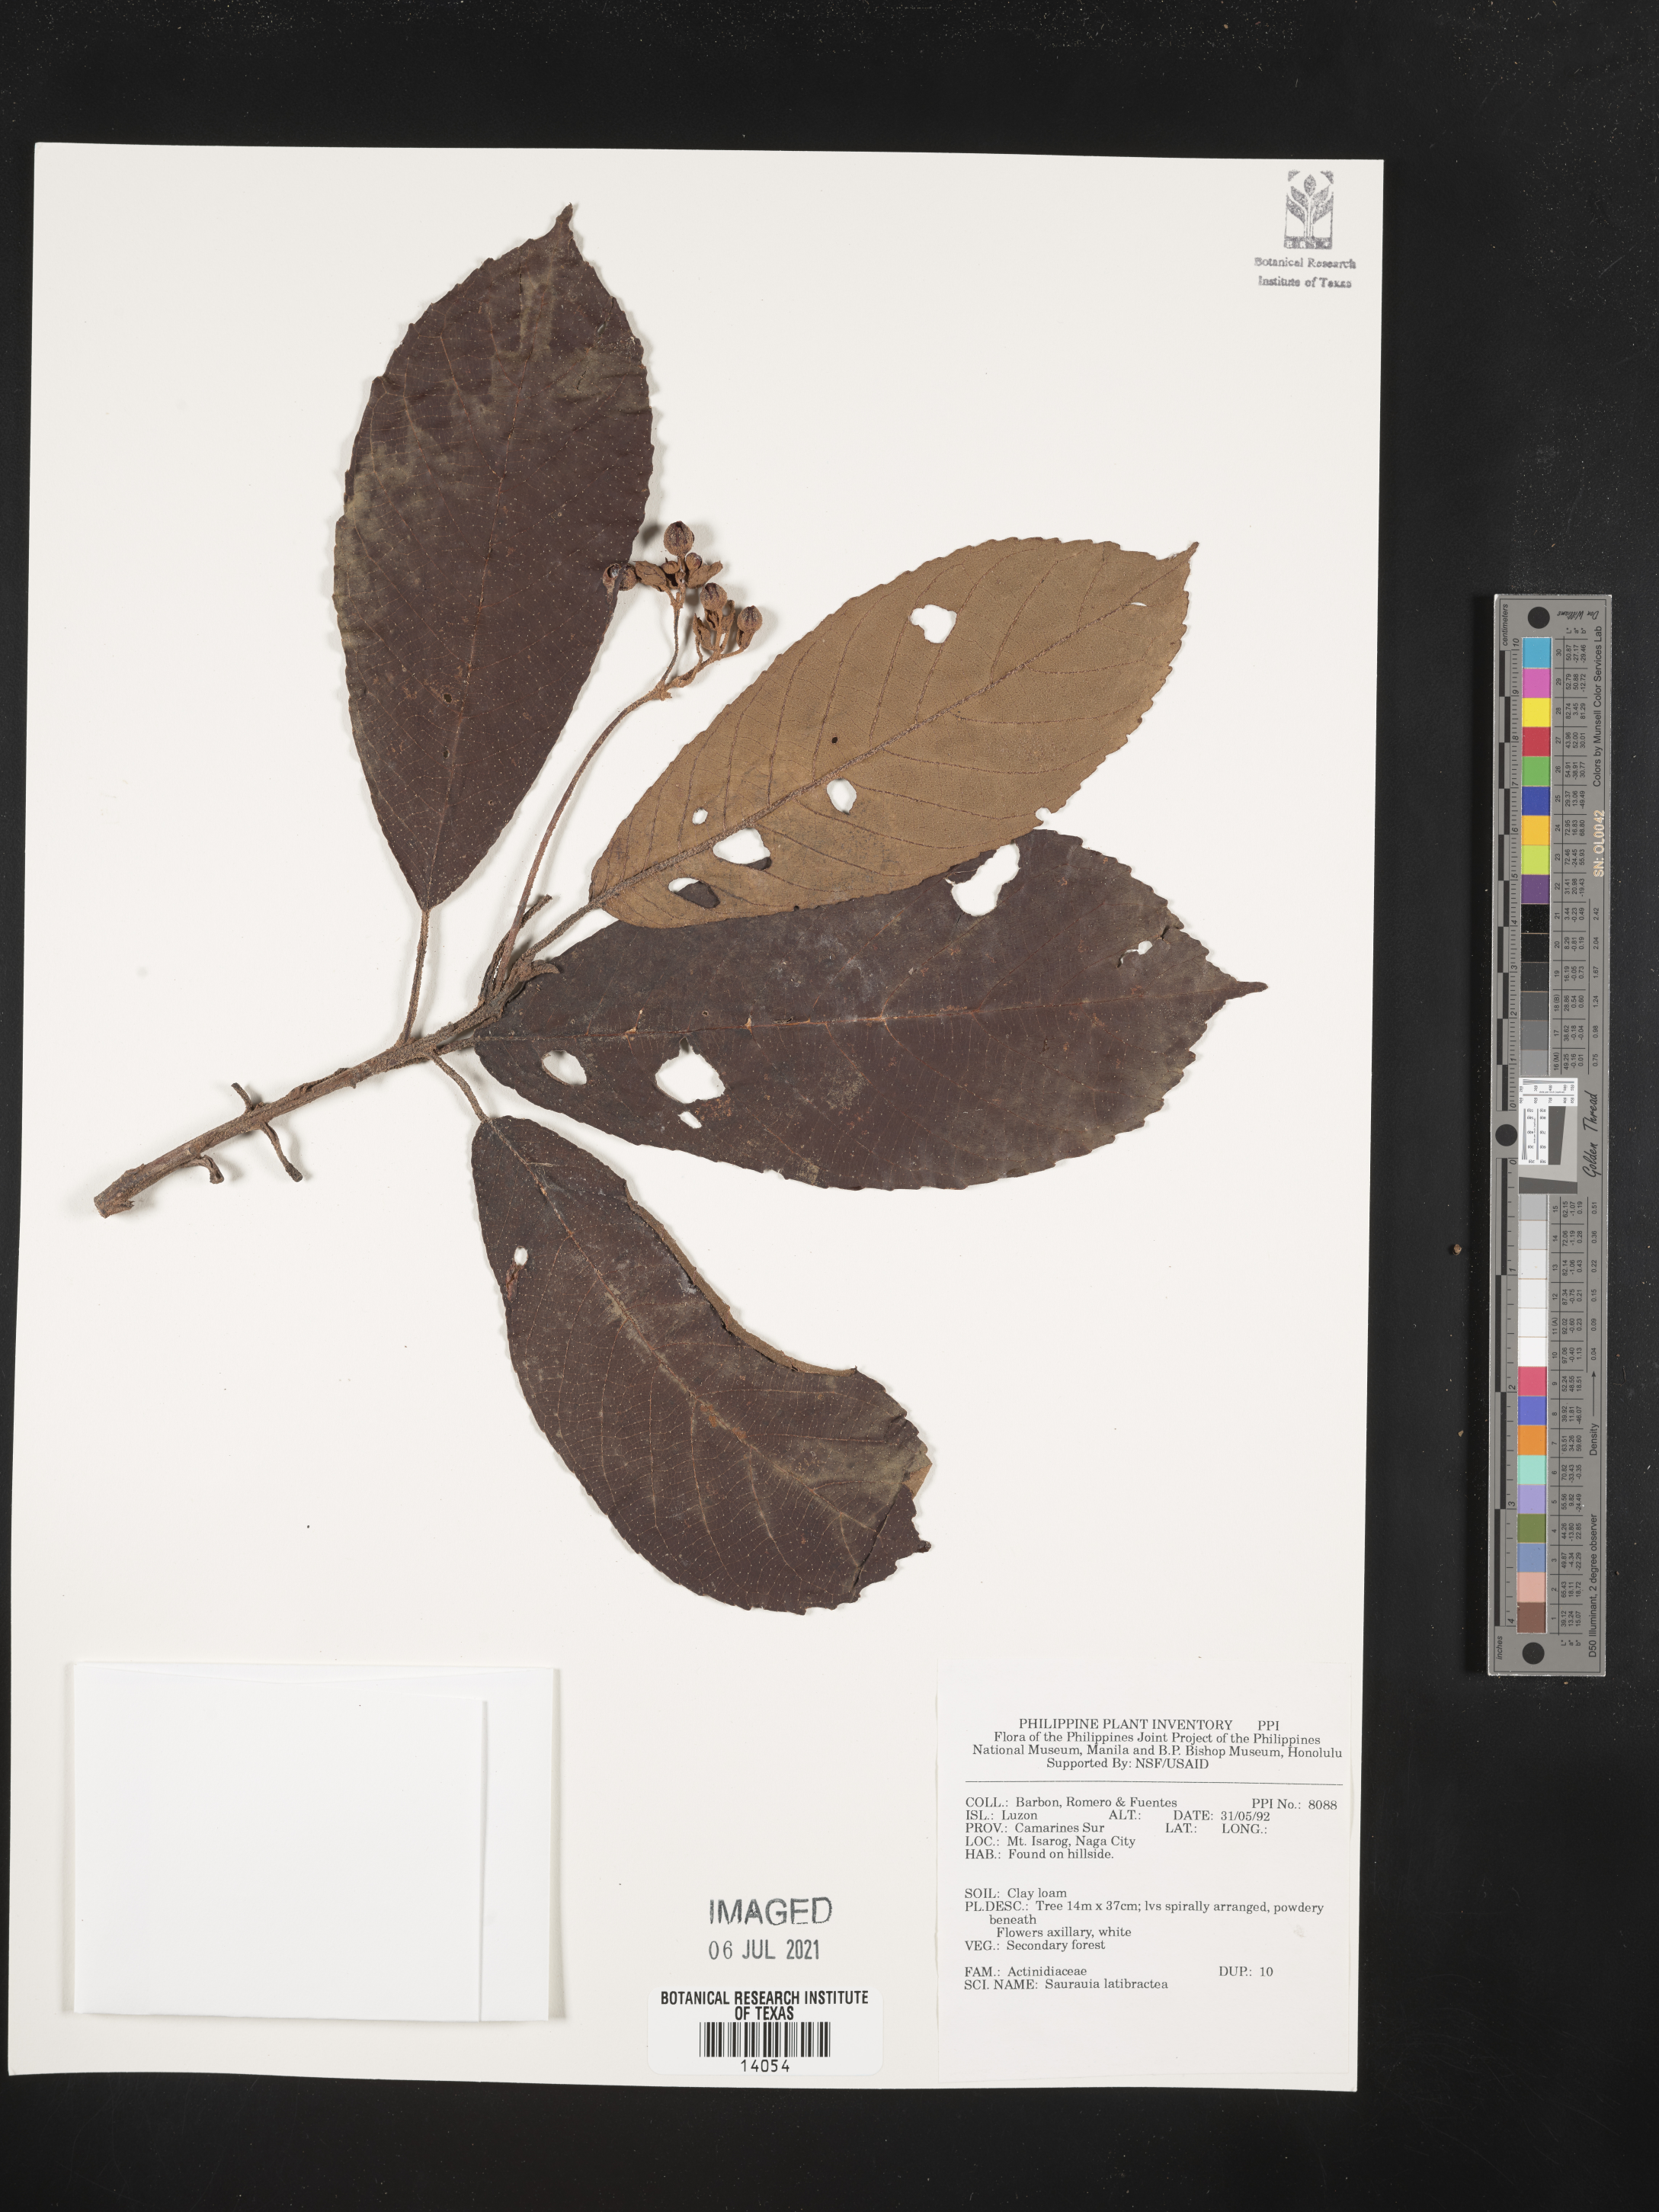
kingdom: Plantae
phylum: Tracheophyta
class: Magnoliopsida
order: Ericales
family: Actinidiaceae
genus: Saurauia
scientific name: Saurauia latibractea
